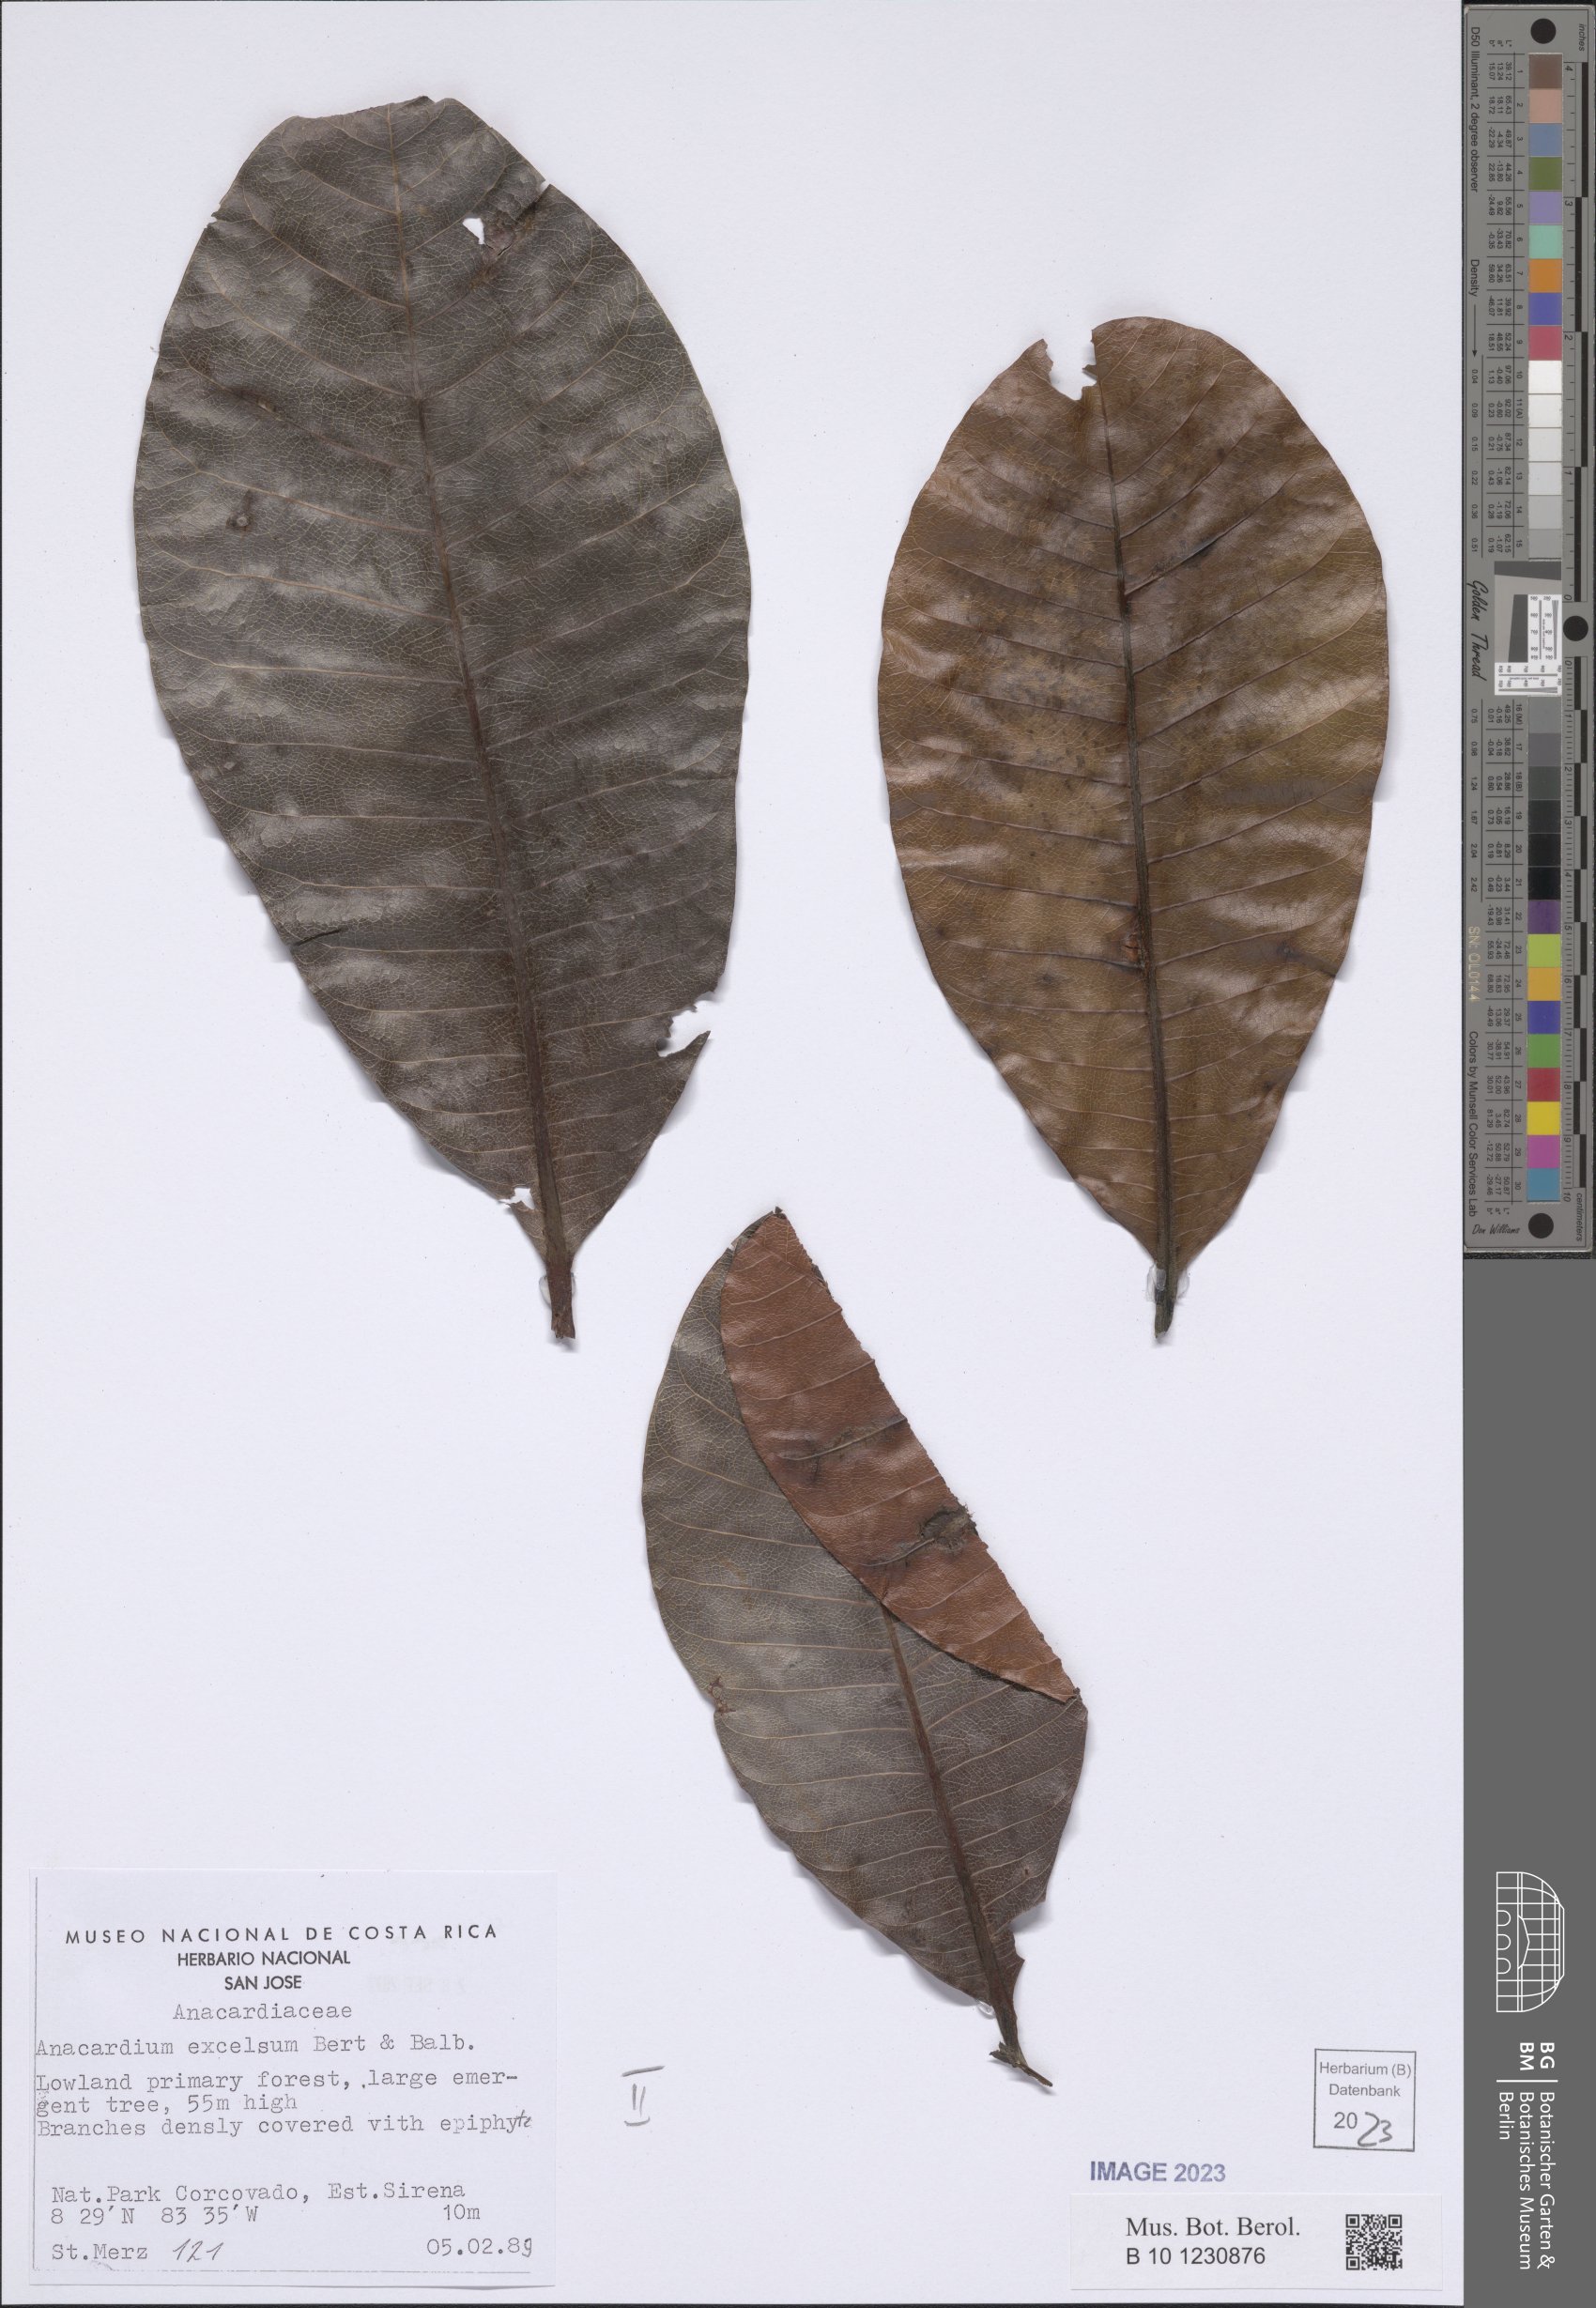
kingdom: Plantae
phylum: Tracheophyta
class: Magnoliopsida
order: Sapindales
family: Anacardiaceae
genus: Anacardium
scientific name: Anacardium excelsum
